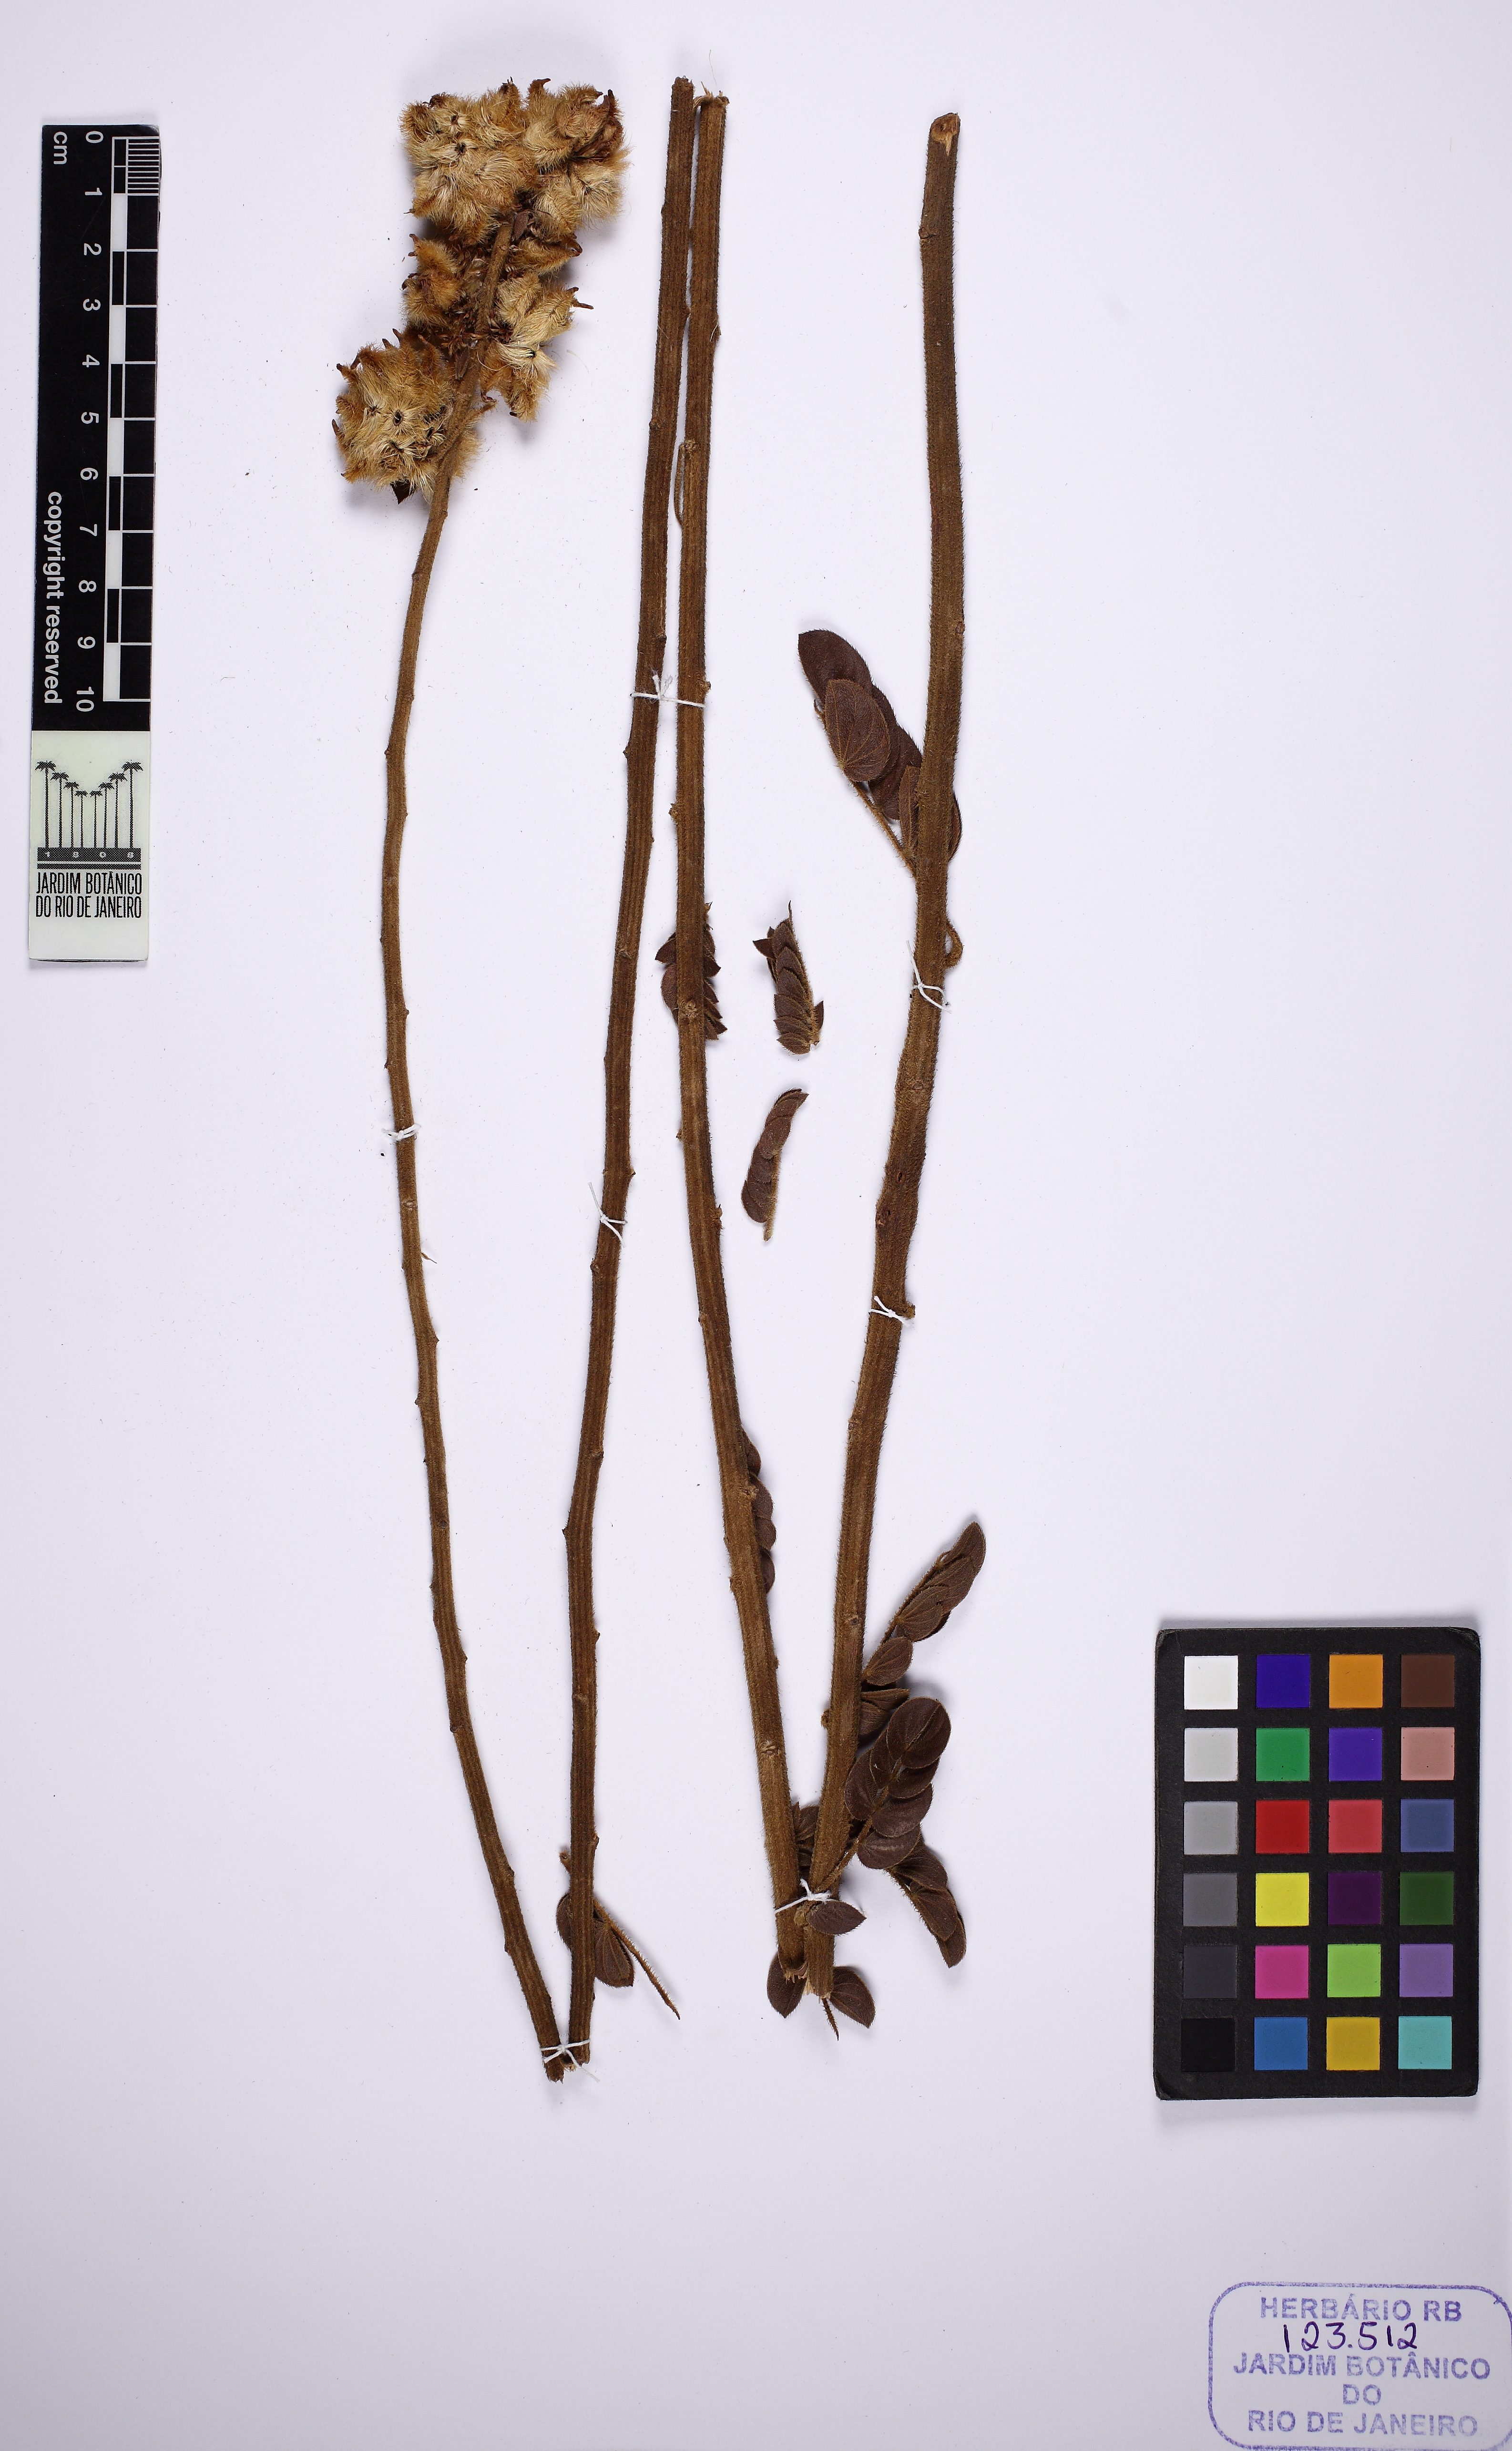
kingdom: Plantae
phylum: Tracheophyta
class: Magnoliopsida
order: Fabales
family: Fabaceae
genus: Mimosa
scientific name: Mimosa pseudoradula
